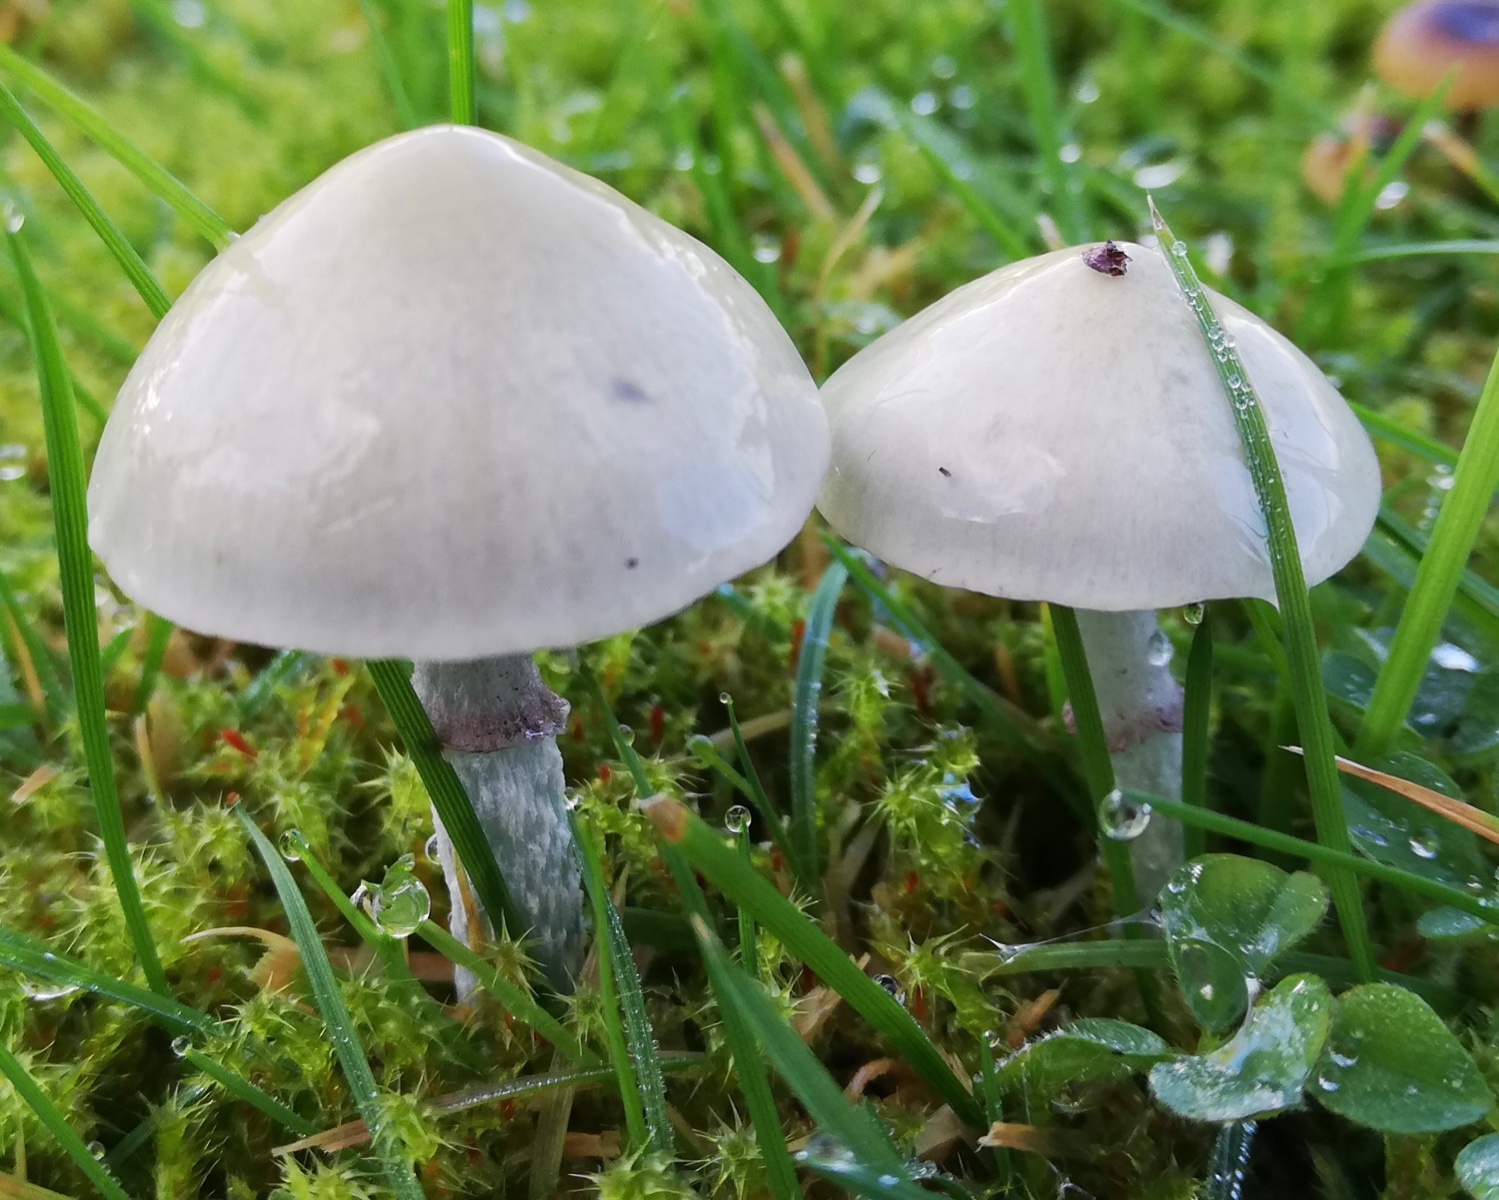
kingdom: Fungi
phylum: Basidiomycota
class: Agaricomycetes
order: Agaricales
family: Strophariaceae
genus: Stropharia
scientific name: Stropharia
